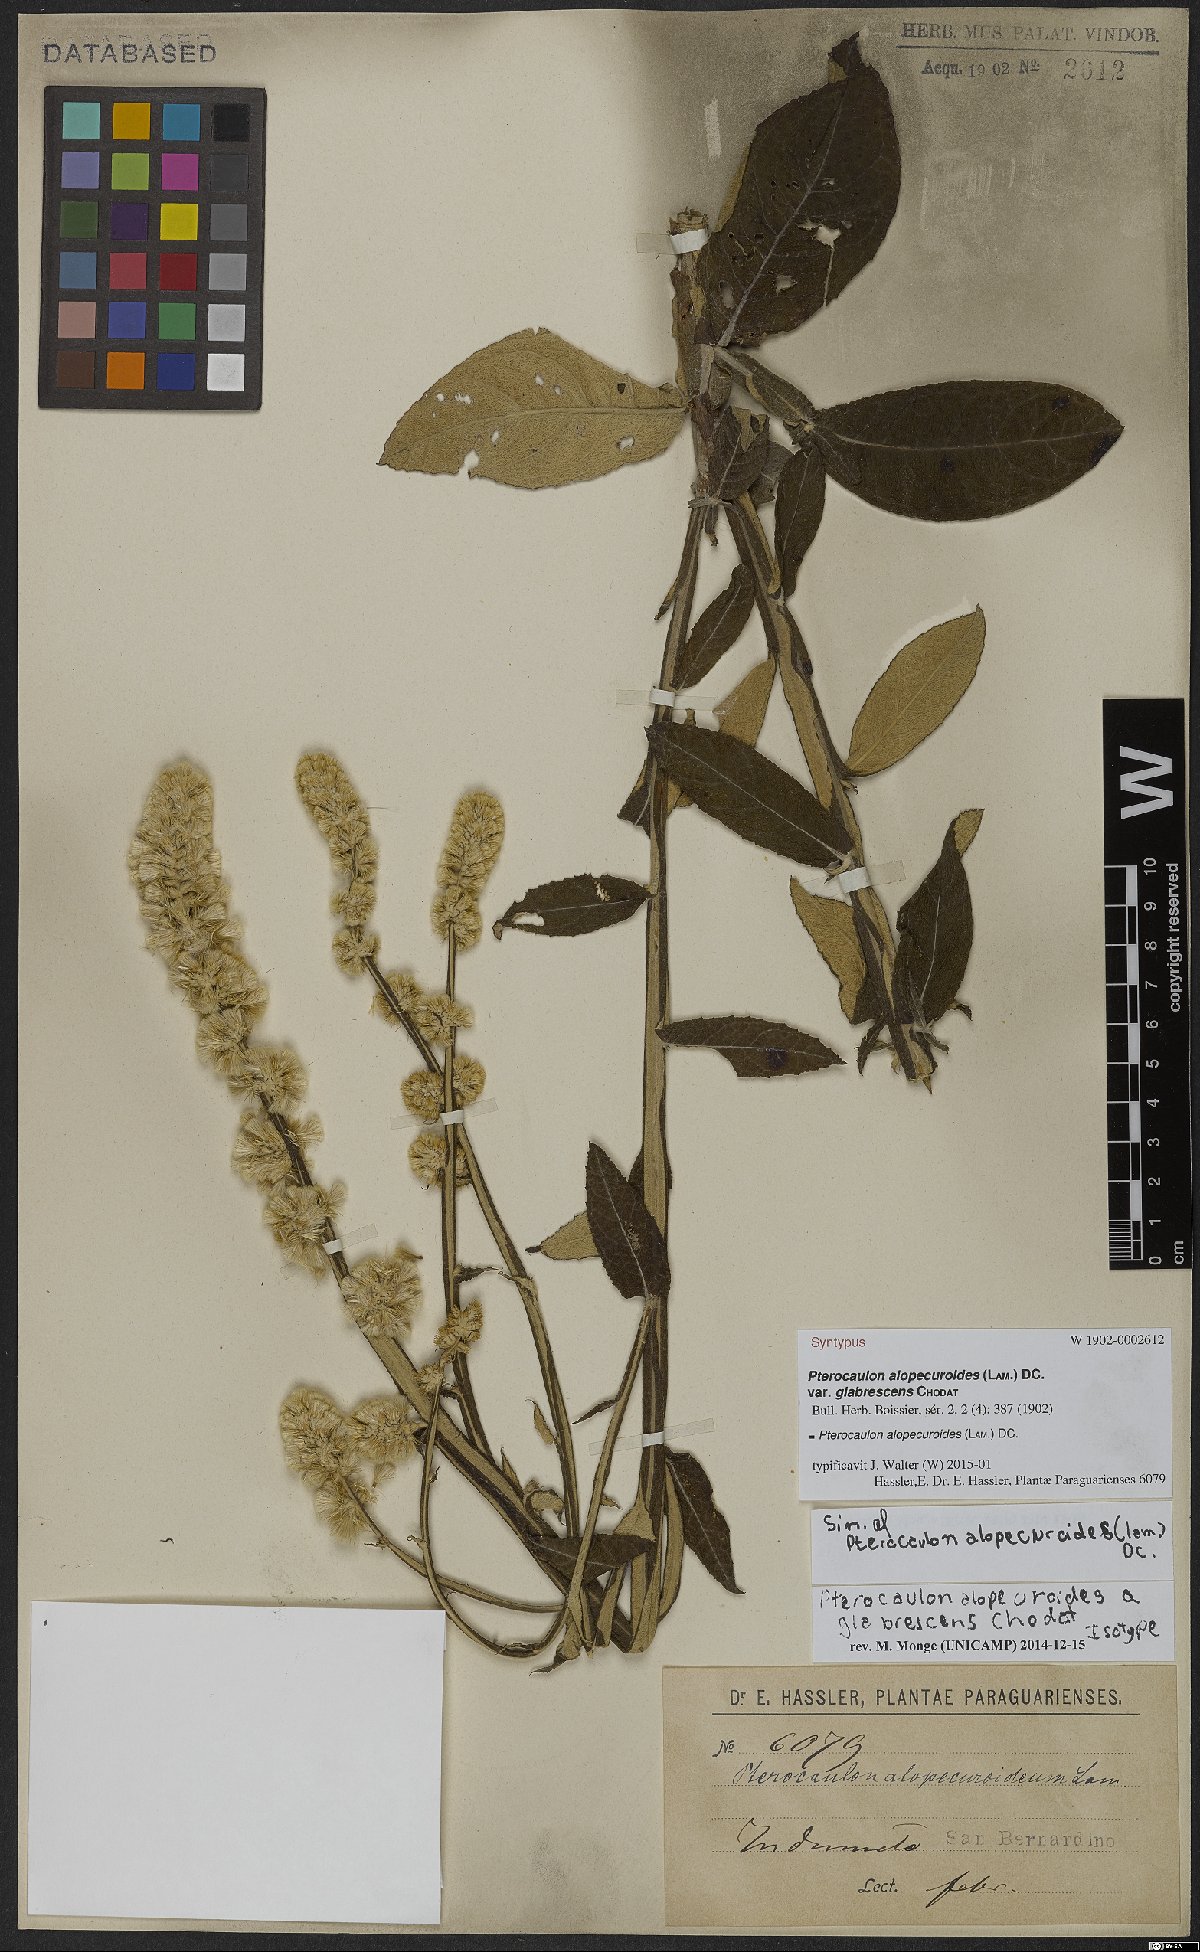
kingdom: Plantae
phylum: Tracheophyta
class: Magnoliopsida
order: Asterales
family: Asteraceae
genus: Pterocaulon
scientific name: Pterocaulon alopecuroides
